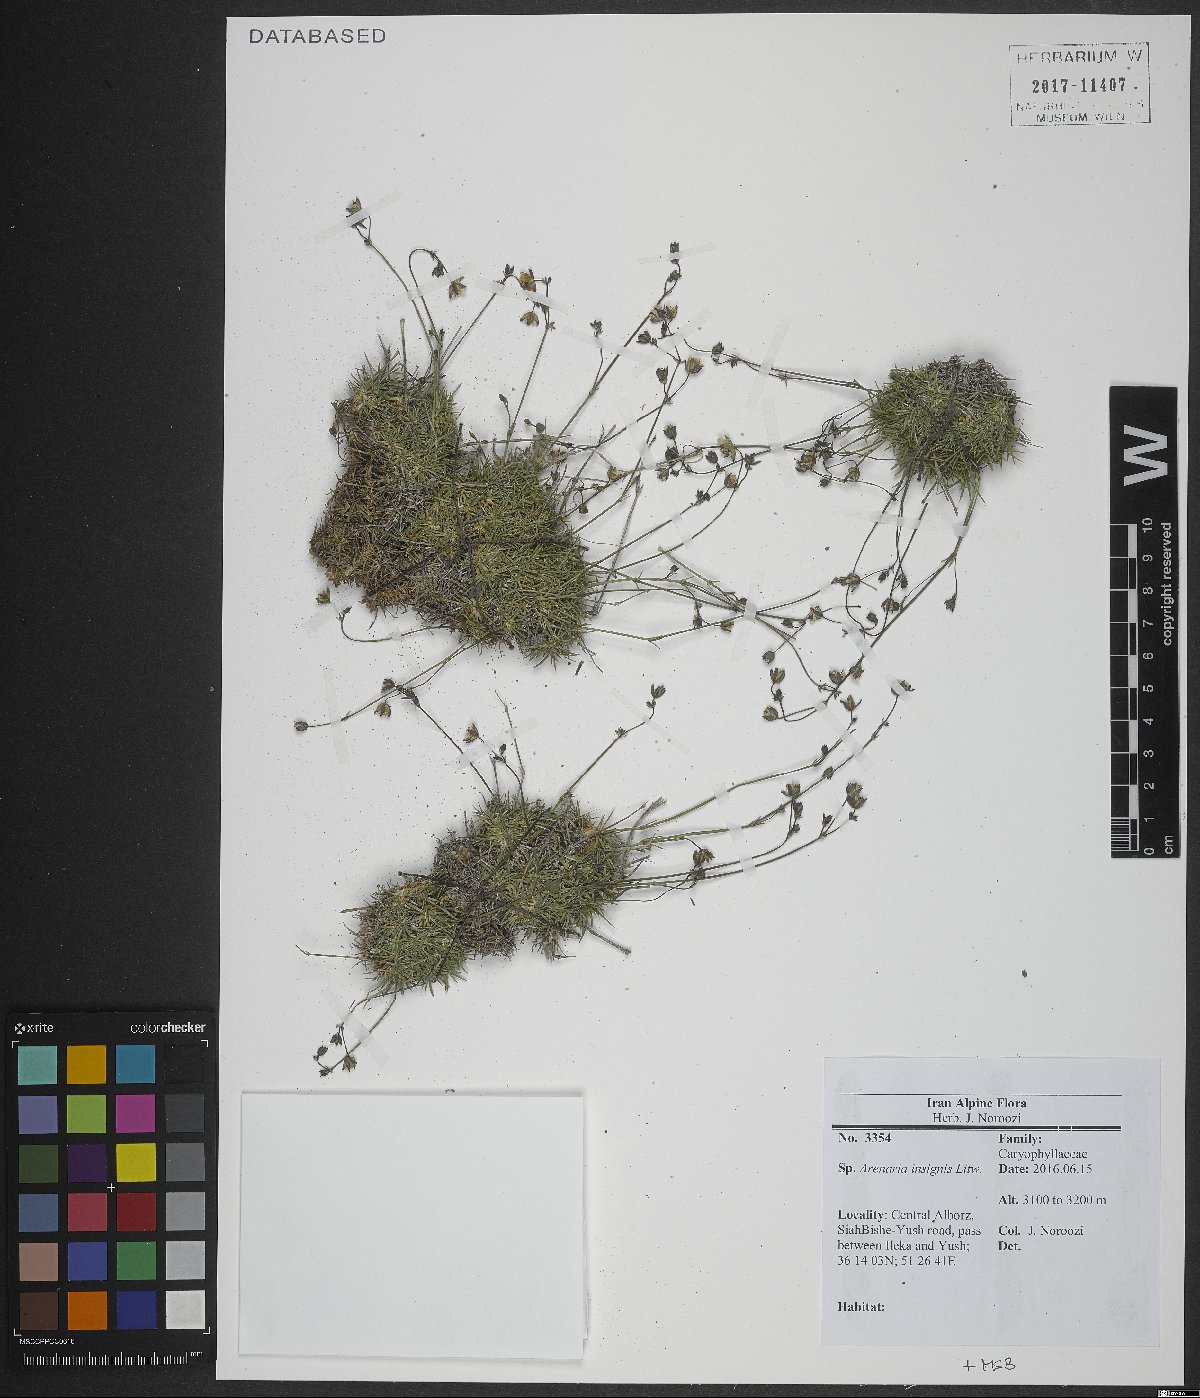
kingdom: Plantae
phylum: Tracheophyta
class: Magnoliopsida
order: Caryophyllales
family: Caryophyllaceae
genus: Eremogone
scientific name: Eremogone insignis
